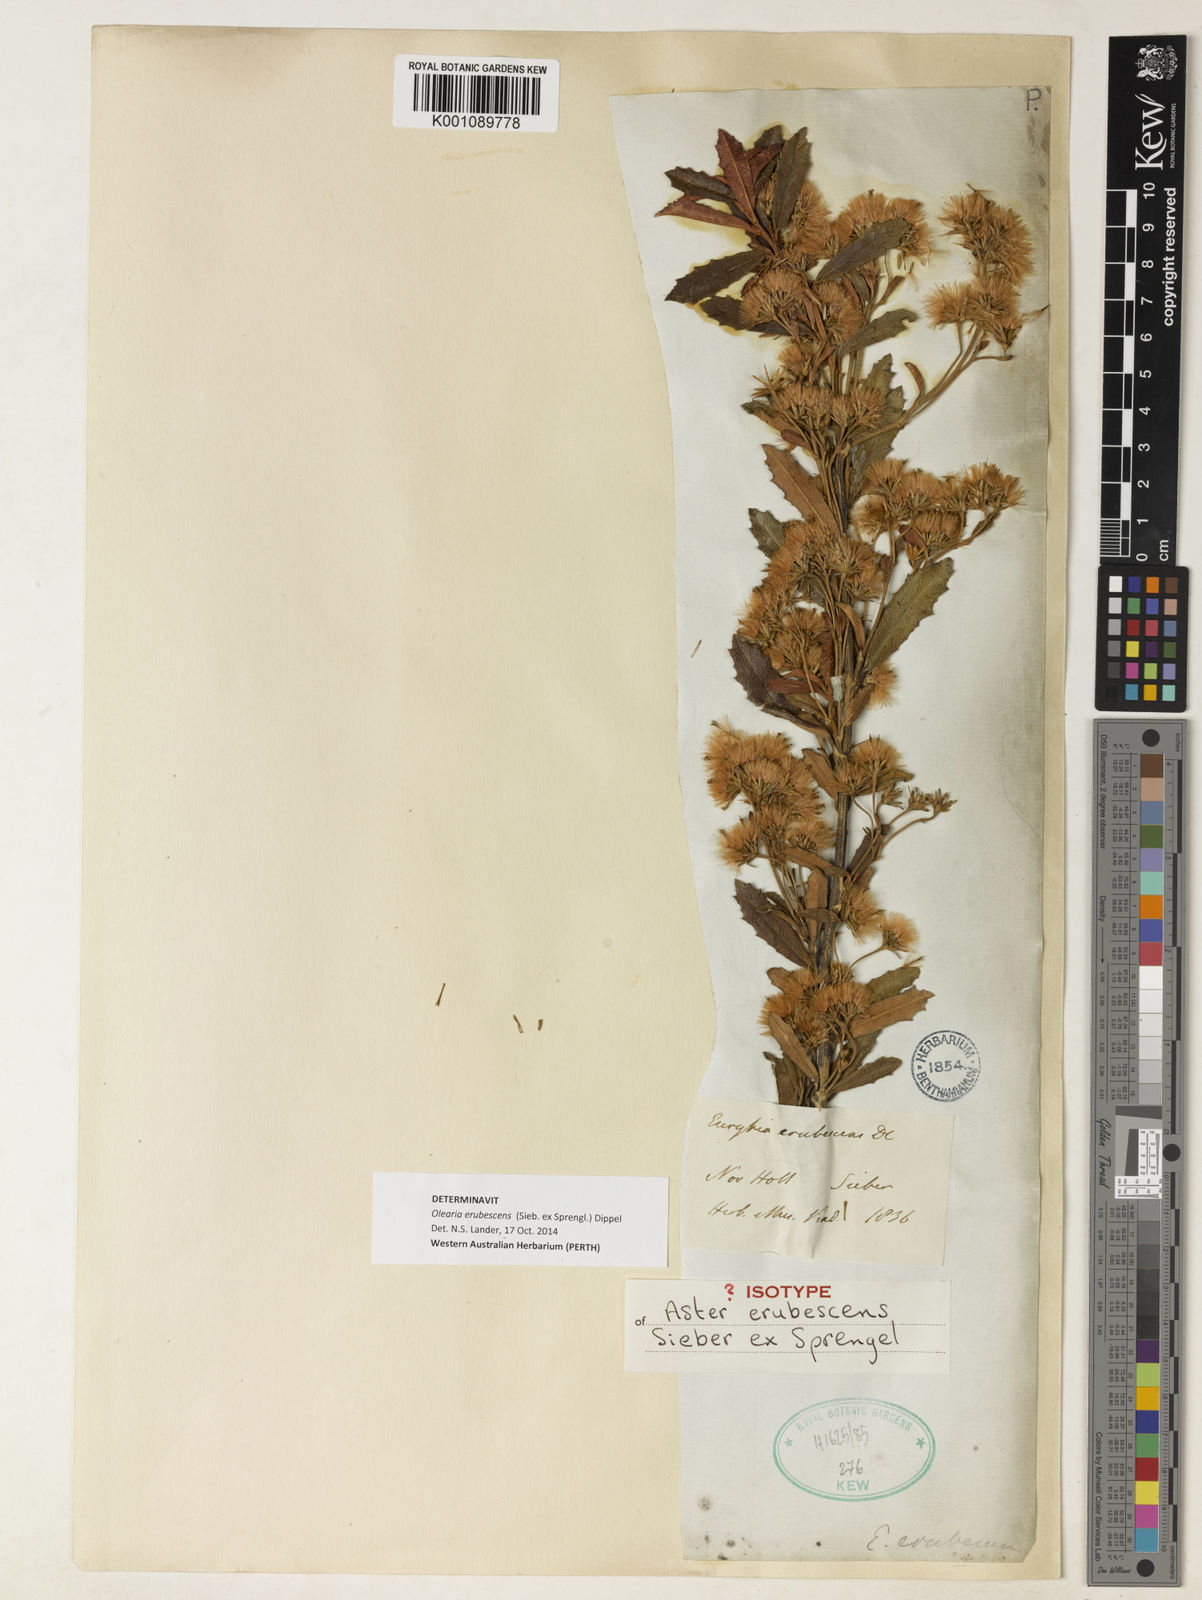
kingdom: Plantae
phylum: Tracheophyta
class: Magnoliopsida
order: Asterales
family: Asteraceae
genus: Olearia
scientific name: Olearia erubescens
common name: Moth daisybush
